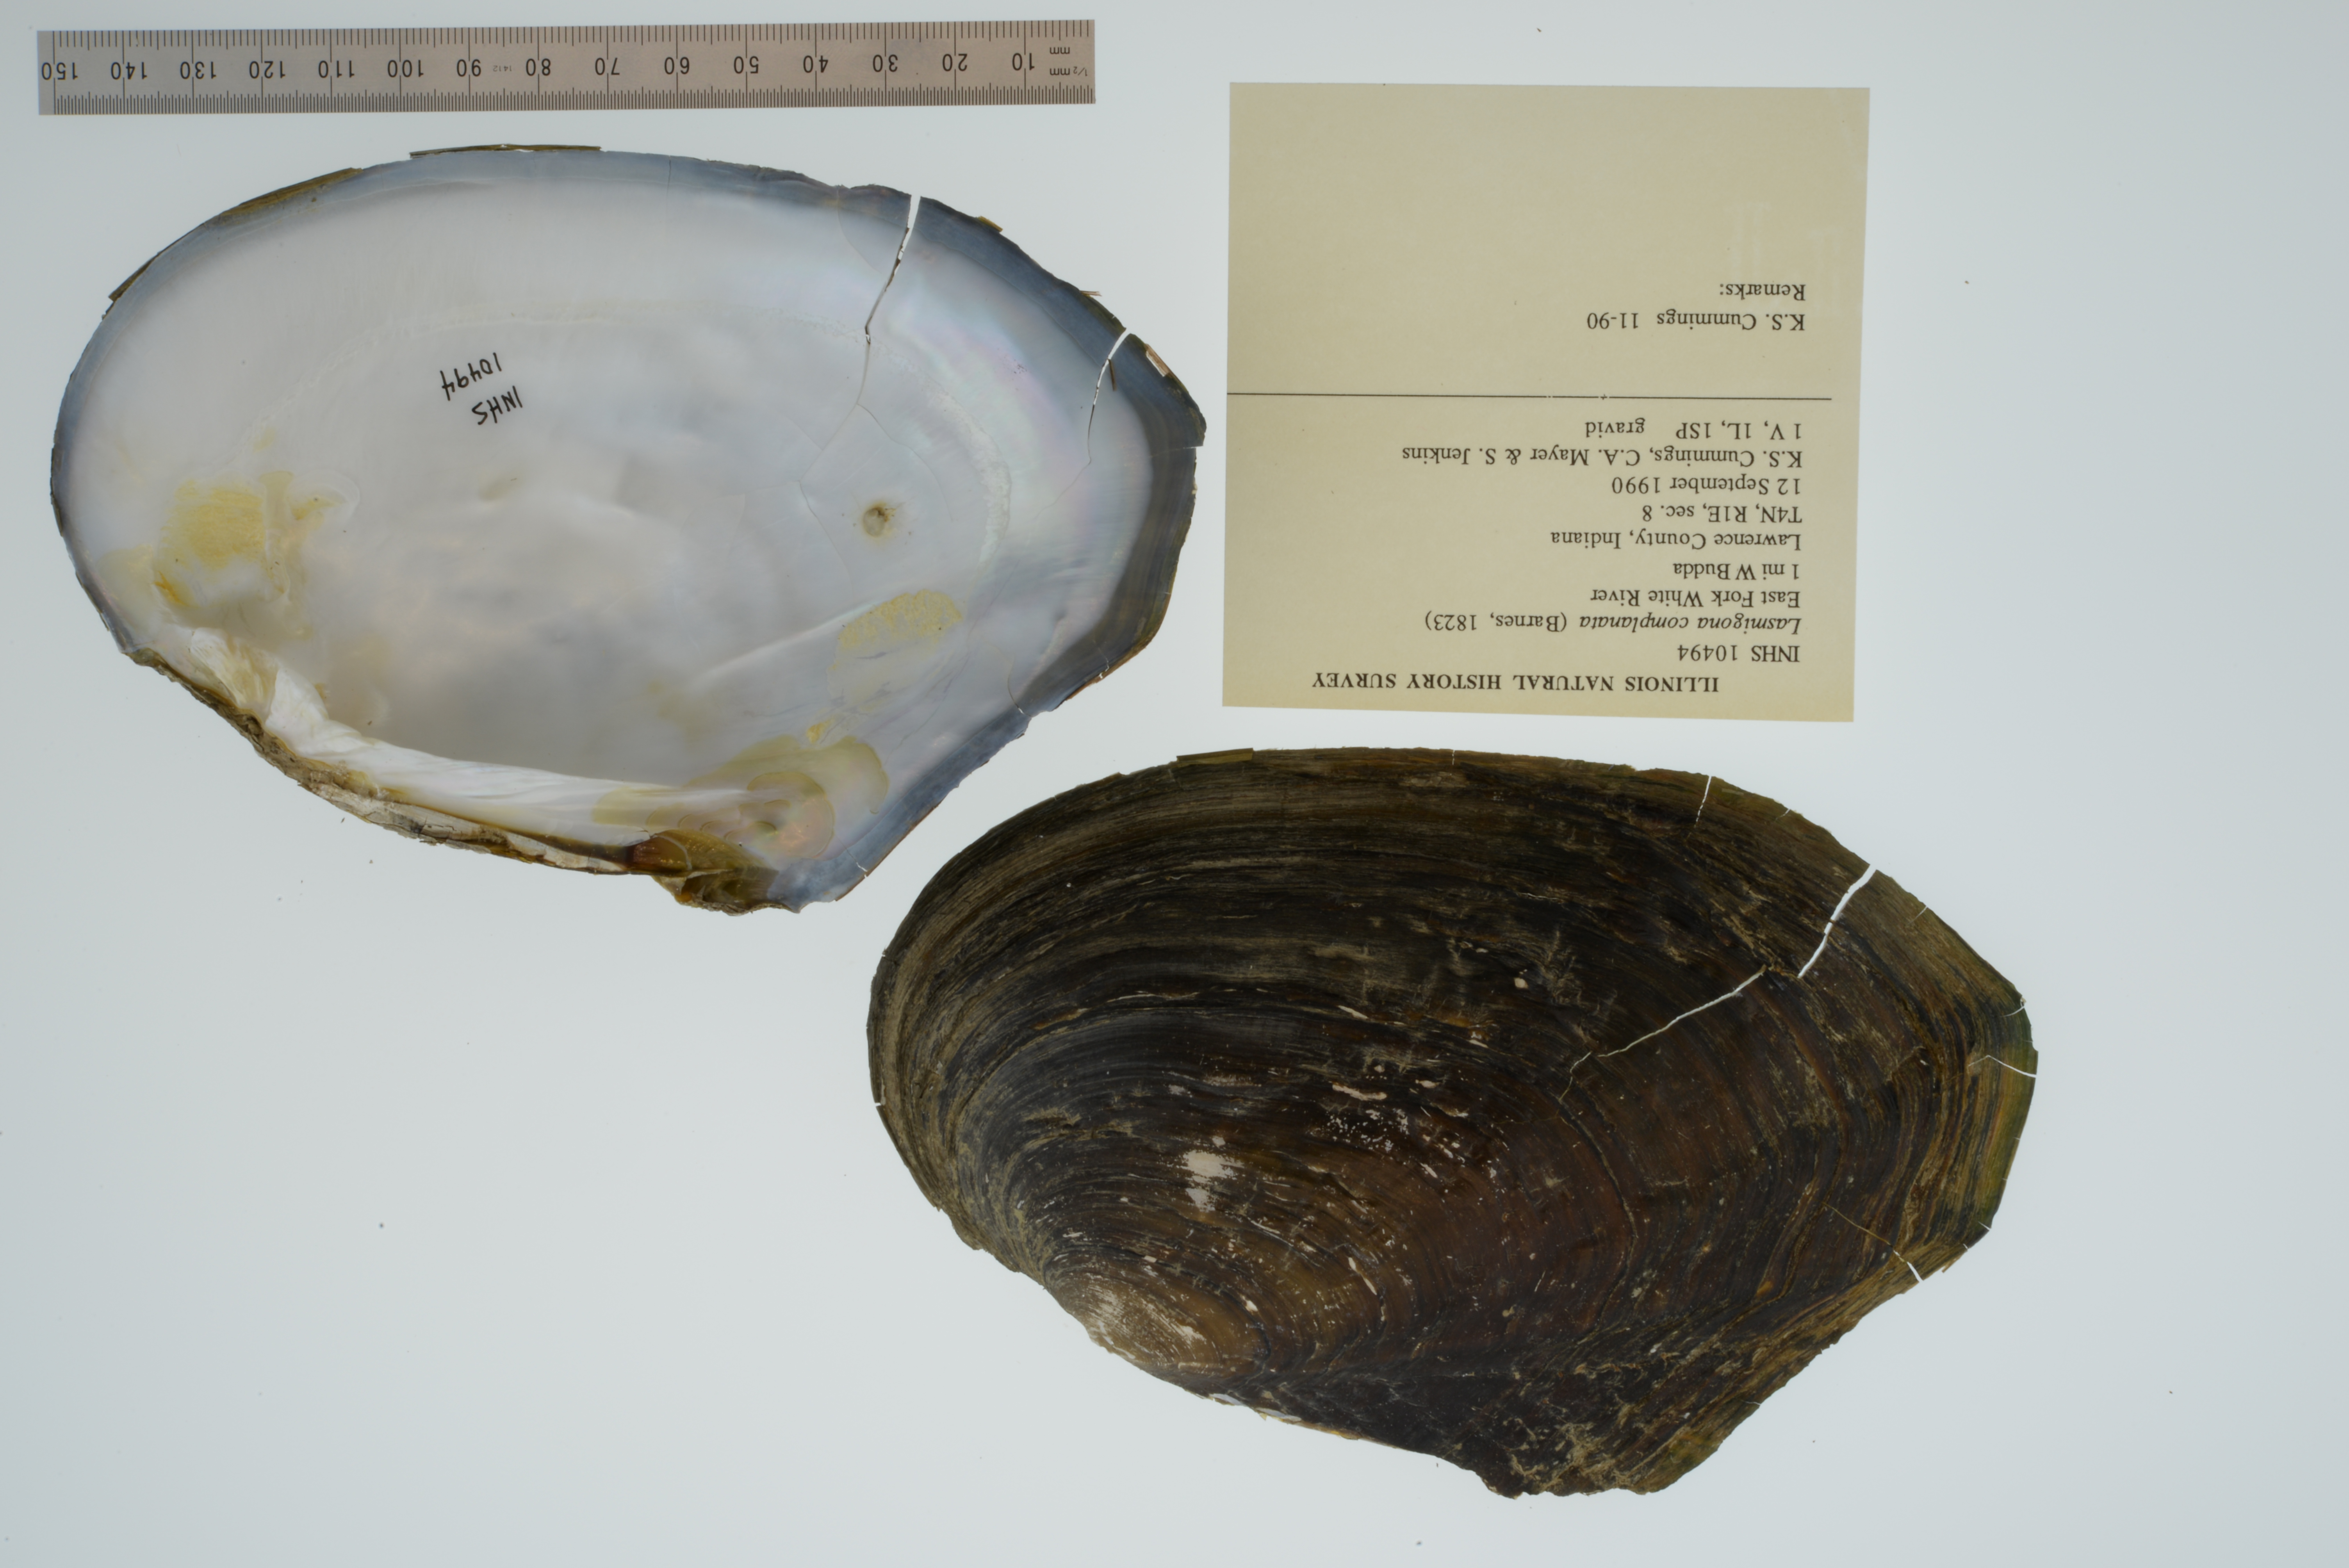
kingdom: Animalia
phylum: Mollusca
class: Bivalvia
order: Unionida
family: Unionidae
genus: Lasmigona
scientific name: Lasmigona complanata
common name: White heelsplitter
